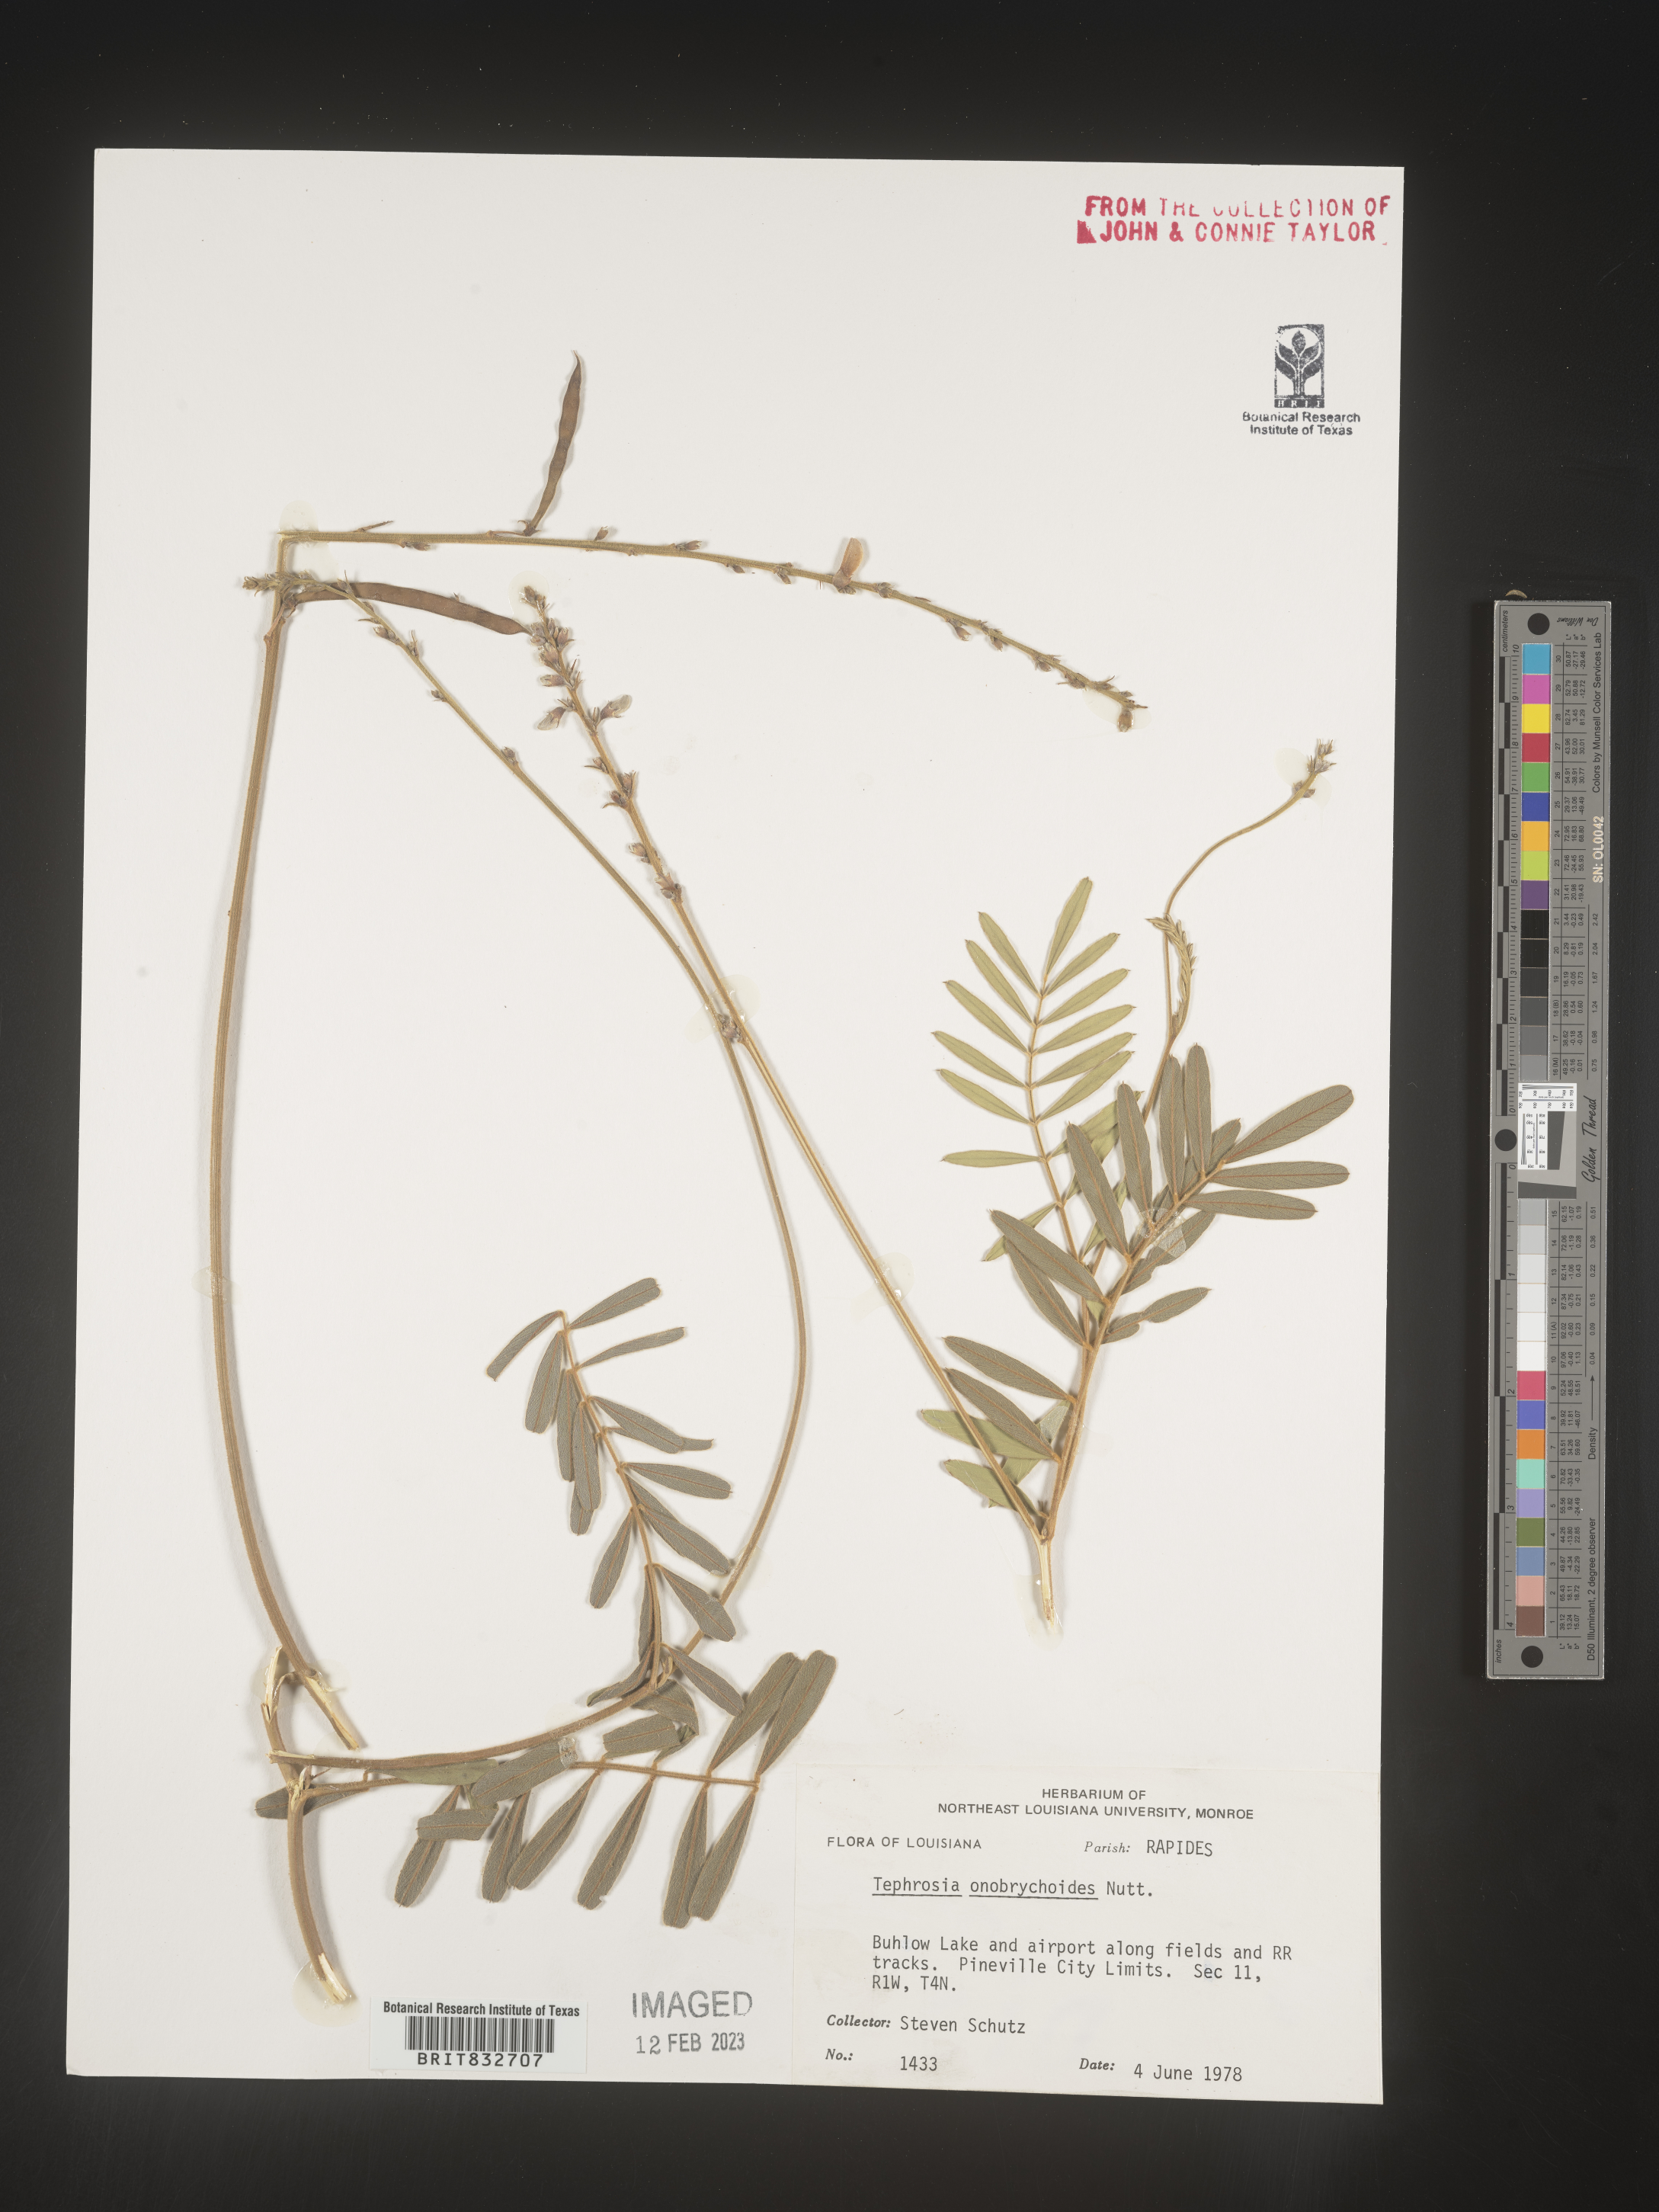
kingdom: Plantae
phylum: Tracheophyta
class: Magnoliopsida
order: Fabales
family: Fabaceae
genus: Tephrosia
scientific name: Tephrosia onobrychoides
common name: Multi-bloom hoary-pea
